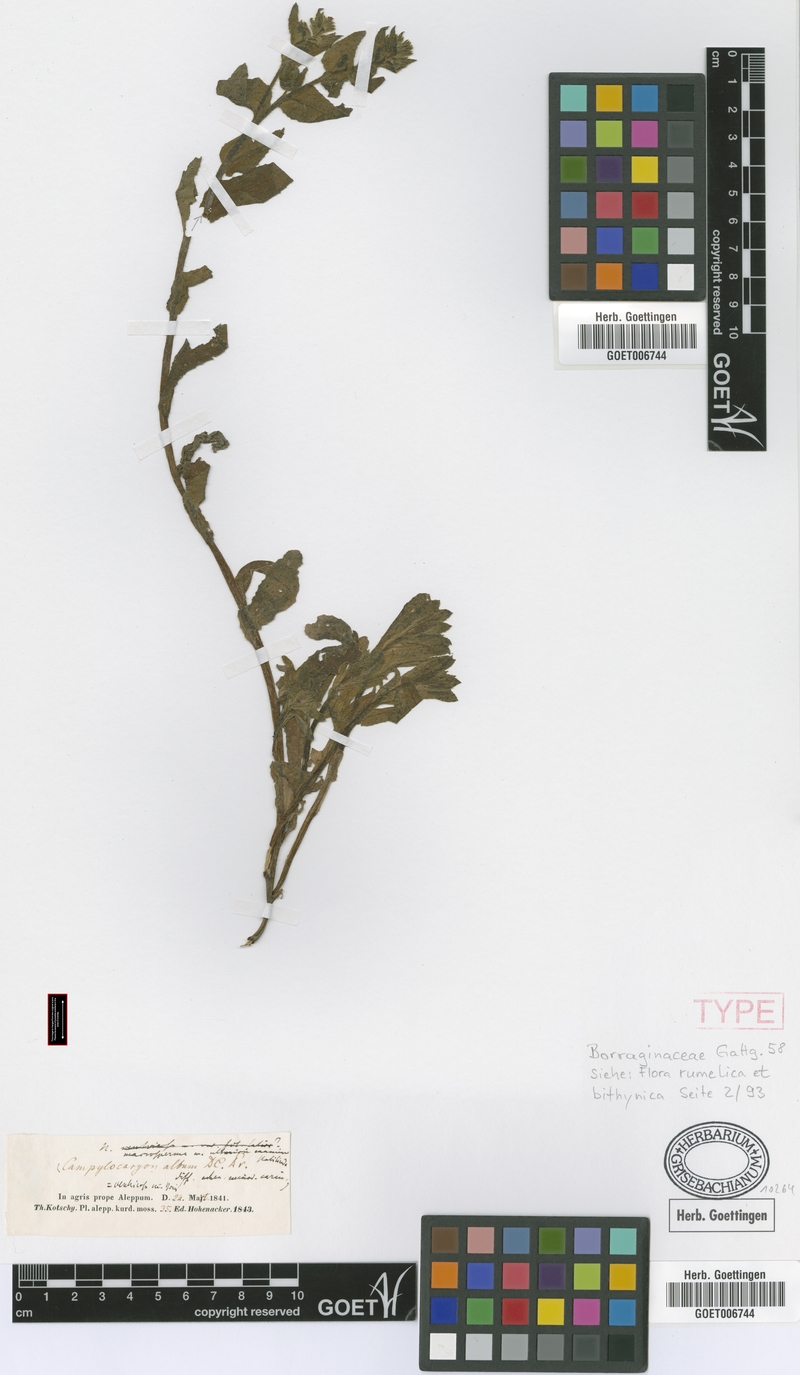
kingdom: Plantae
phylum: Tracheophyta
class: Magnoliopsida
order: Boraginales
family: Boraginaceae
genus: Nonea
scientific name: Nonea echioides
